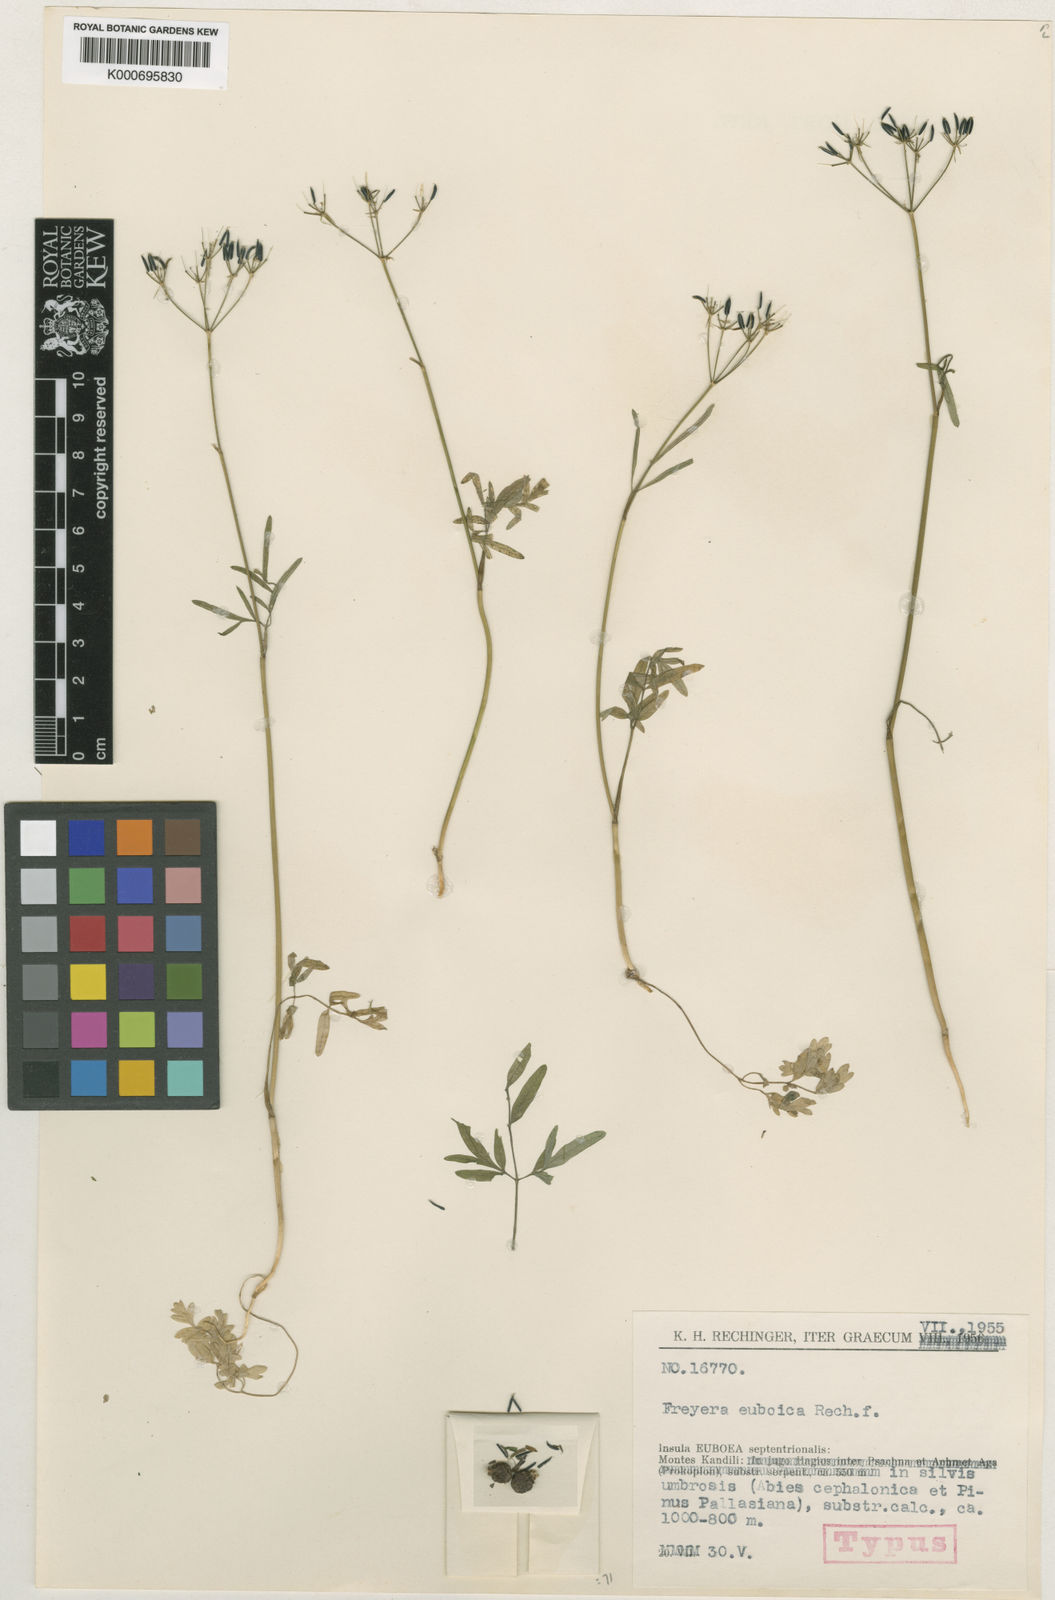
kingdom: Plantae
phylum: Tracheophyta
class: Magnoliopsida
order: Apiales
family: Apiaceae
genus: Geocaryum
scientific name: Geocaryum euboicum
